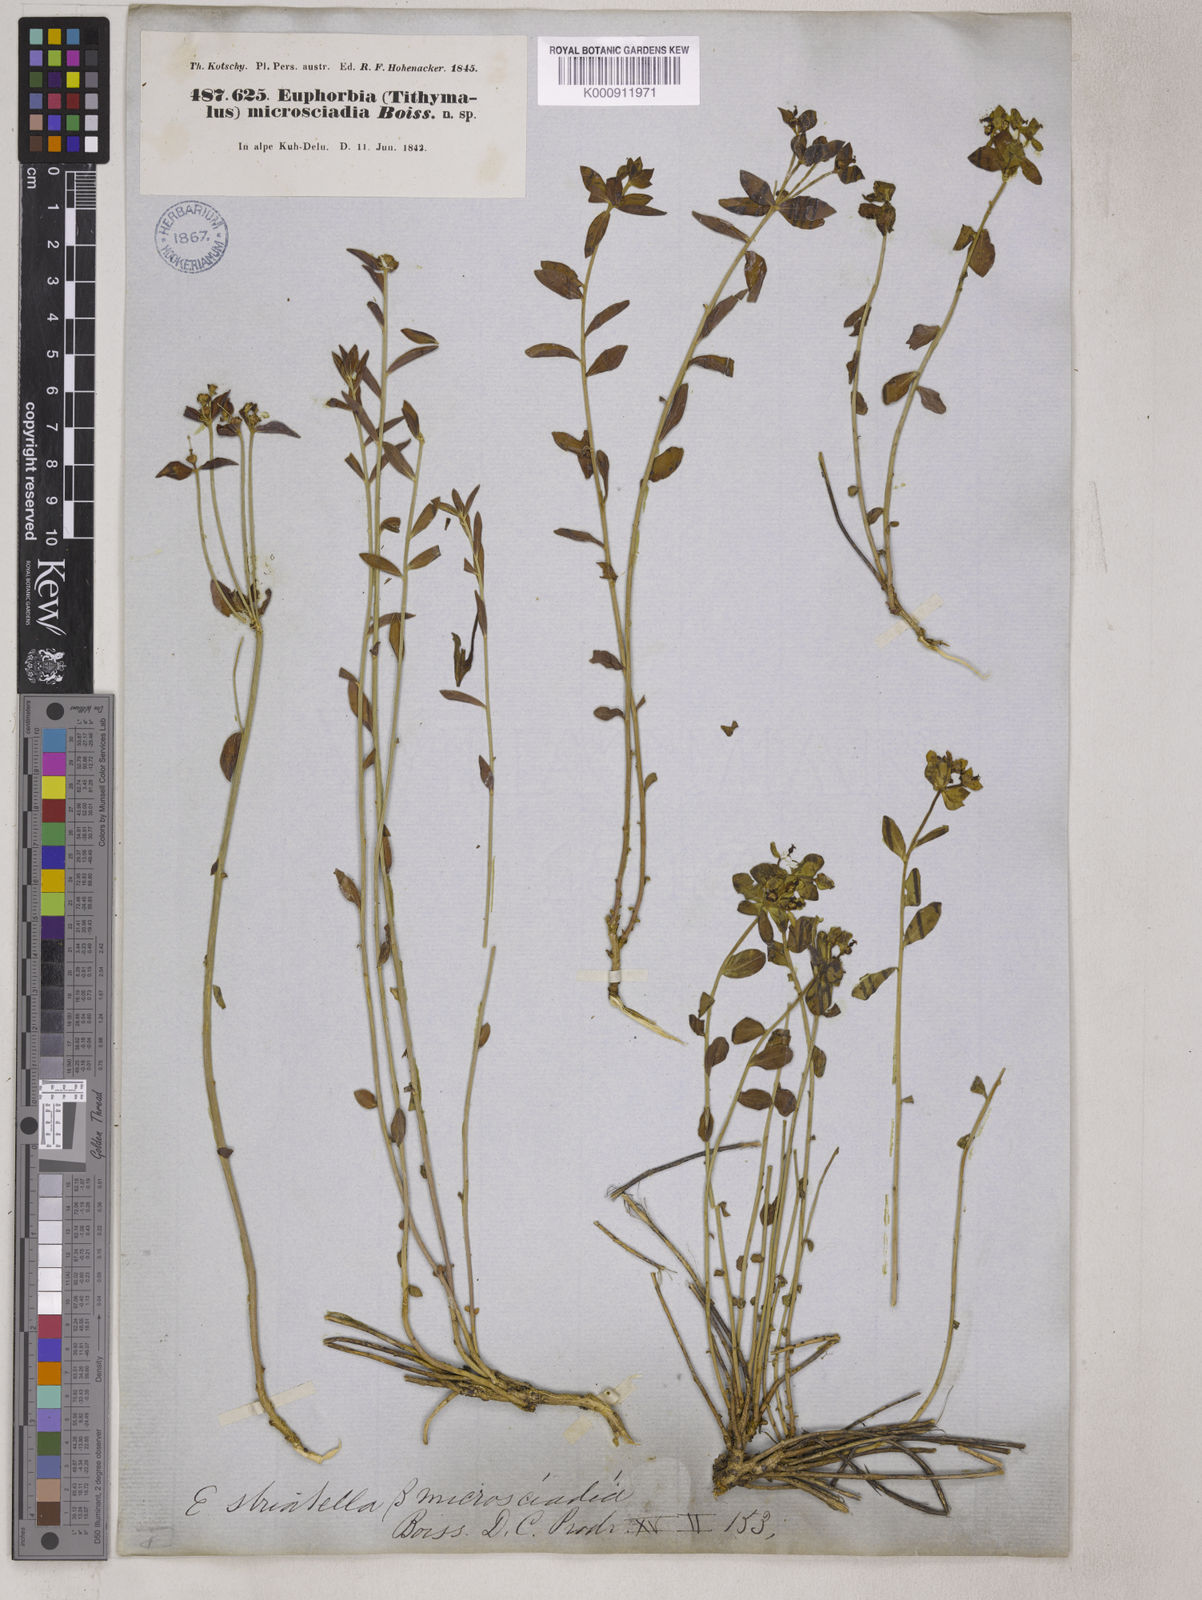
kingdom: Plantae
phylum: Tracheophyta
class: Magnoliopsida
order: Malpighiales
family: Euphorbiaceae
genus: Euphorbia
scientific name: Euphorbia microsciadia
